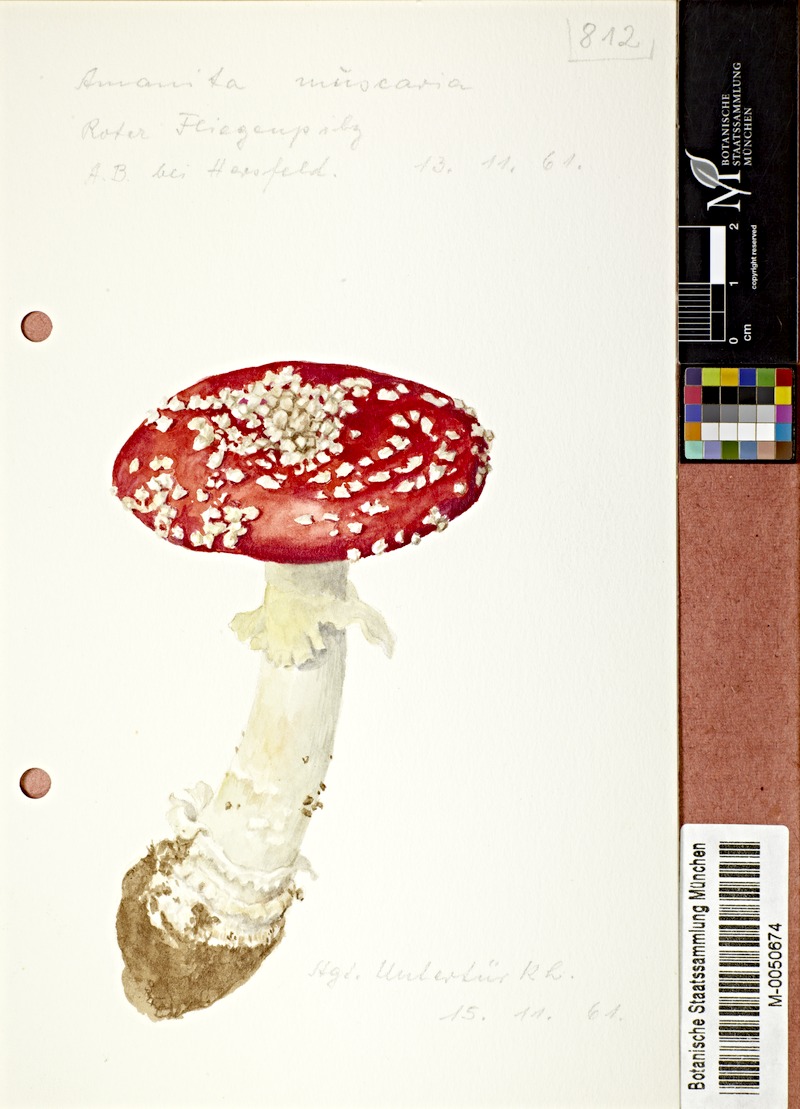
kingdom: Fungi
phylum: Basidiomycota
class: Agaricomycetes
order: Agaricales
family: Amanitaceae
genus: Amanita
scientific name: Amanita muscaria
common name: Fly agaric
